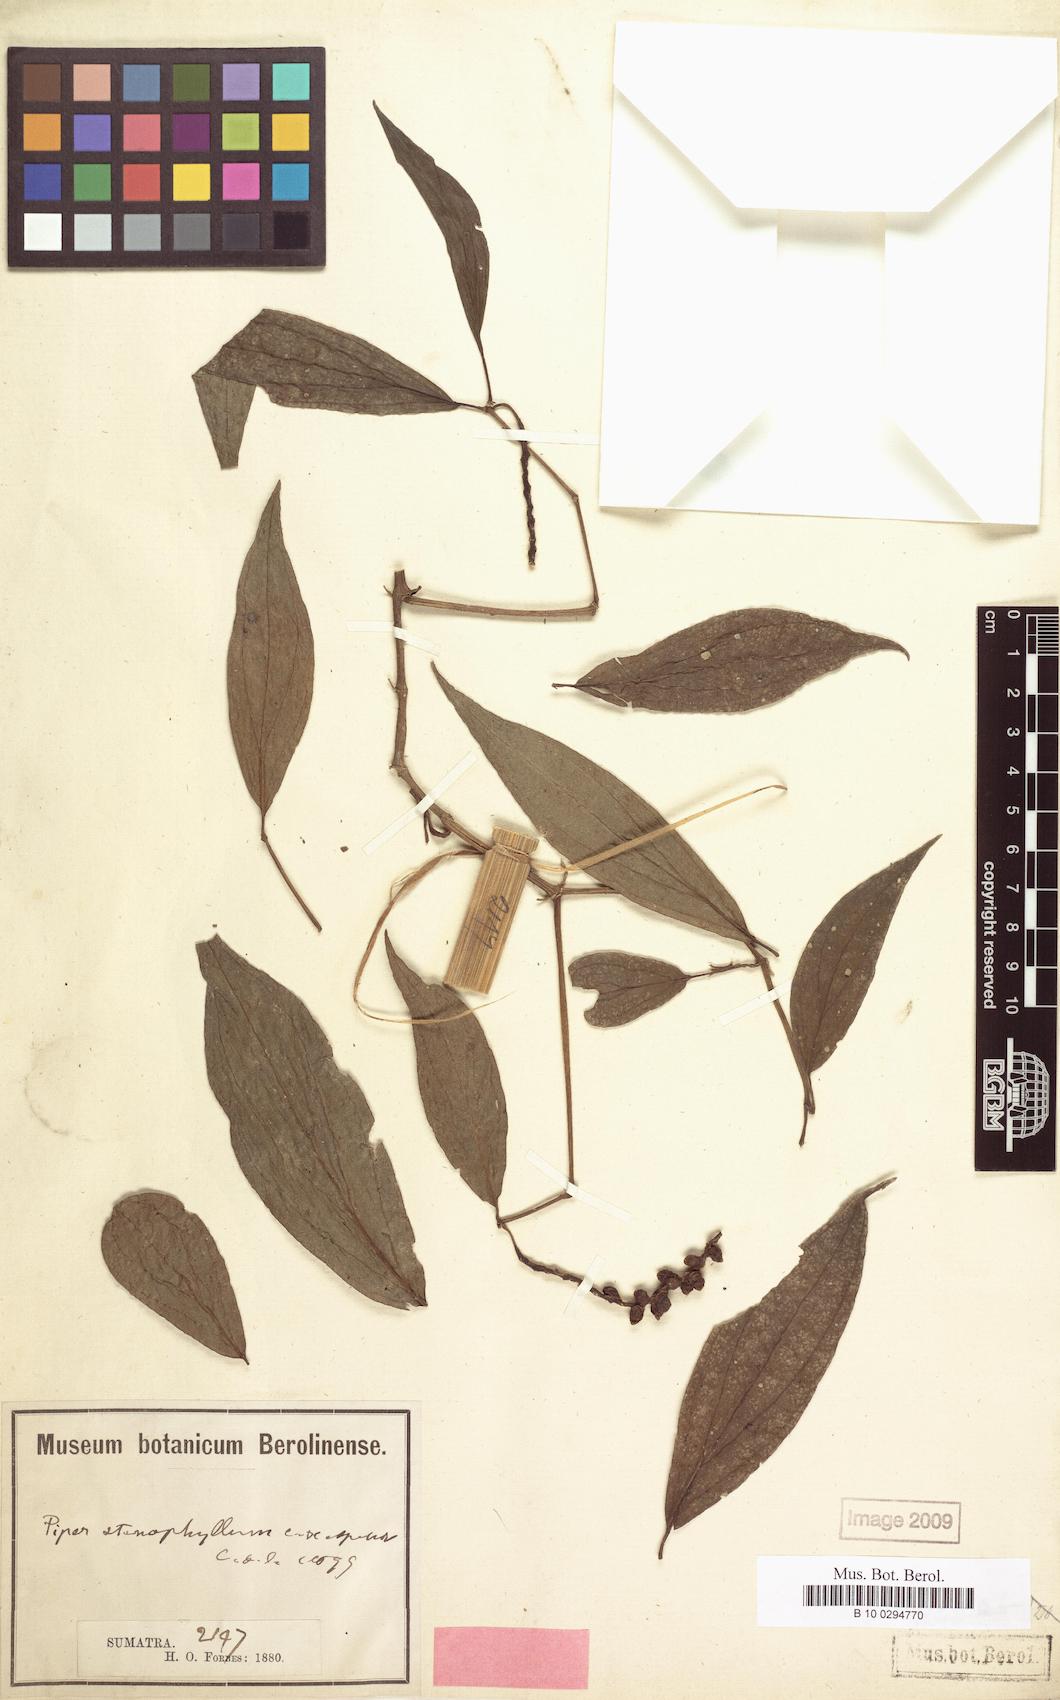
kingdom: Plantae
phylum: Tracheophyta
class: Magnoliopsida
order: Piperales
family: Piperaceae
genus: Piper
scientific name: Piper stenophyllum
